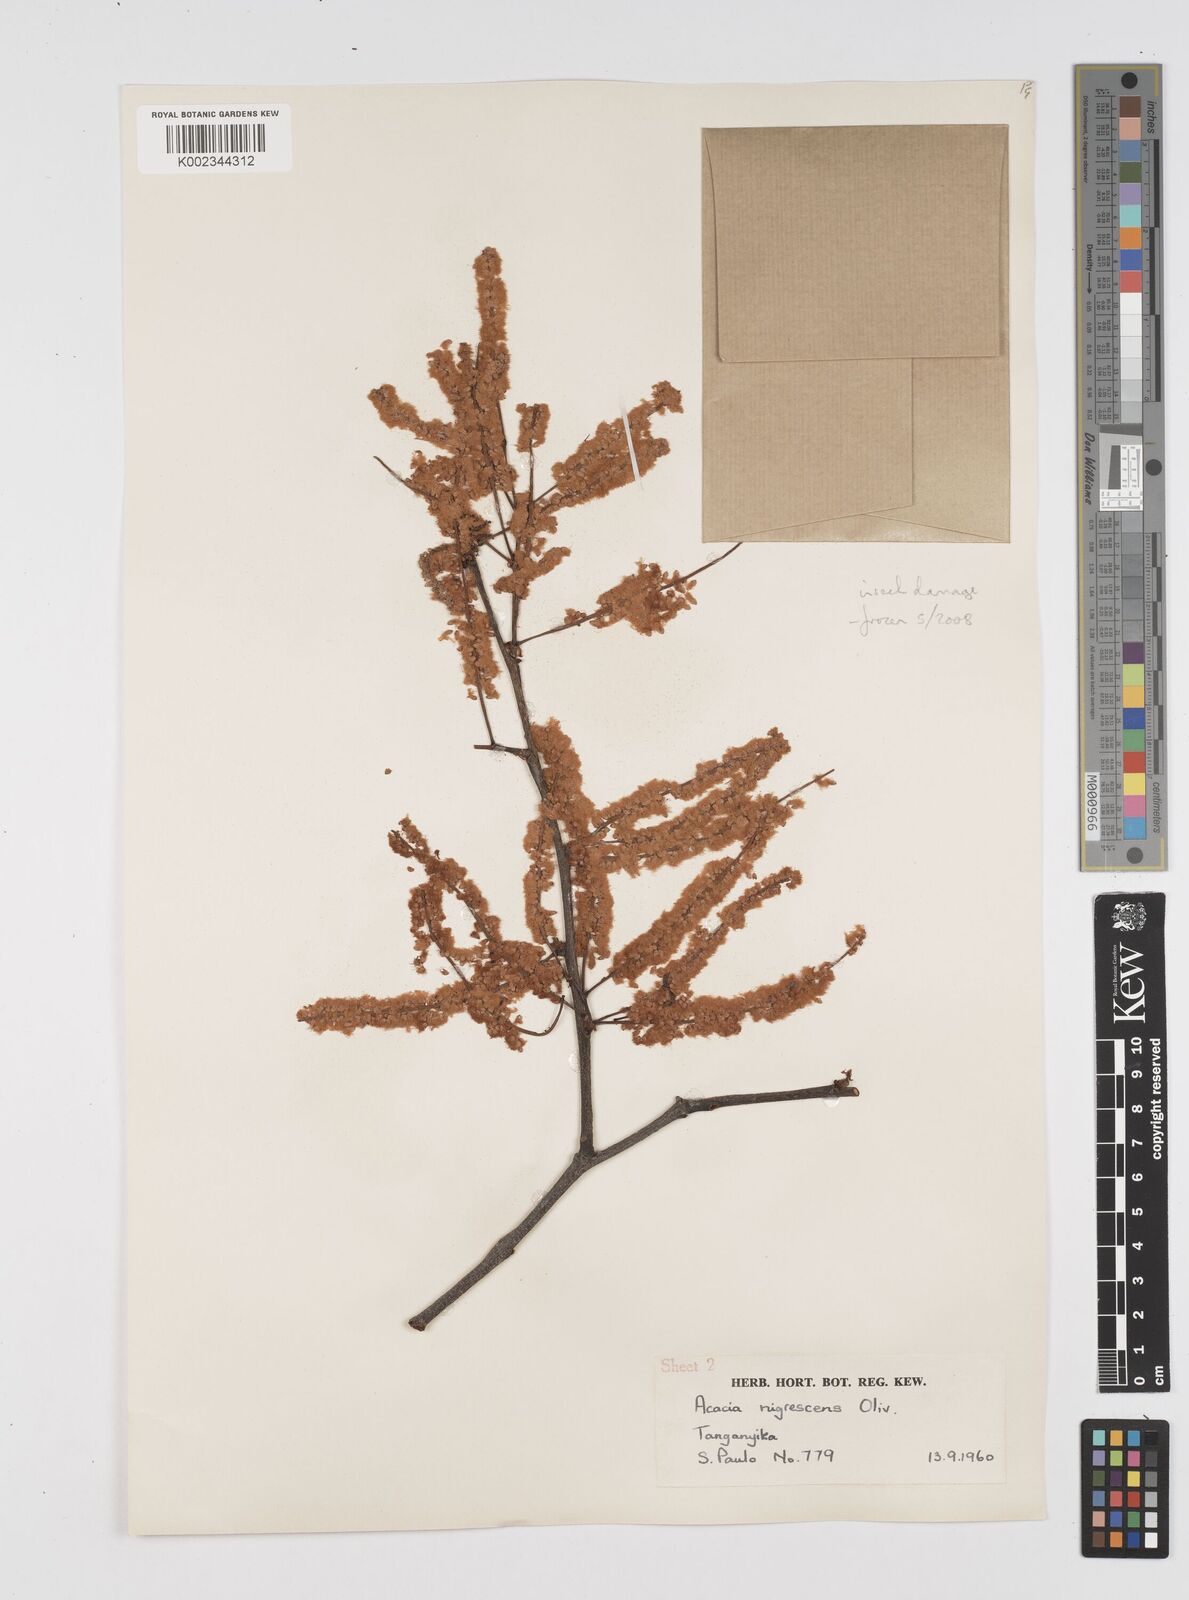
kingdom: Plantae
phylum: Tracheophyta
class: Magnoliopsida
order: Fabales
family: Fabaceae
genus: Senegalia
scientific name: Senegalia nigrescens
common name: Knobthorn
